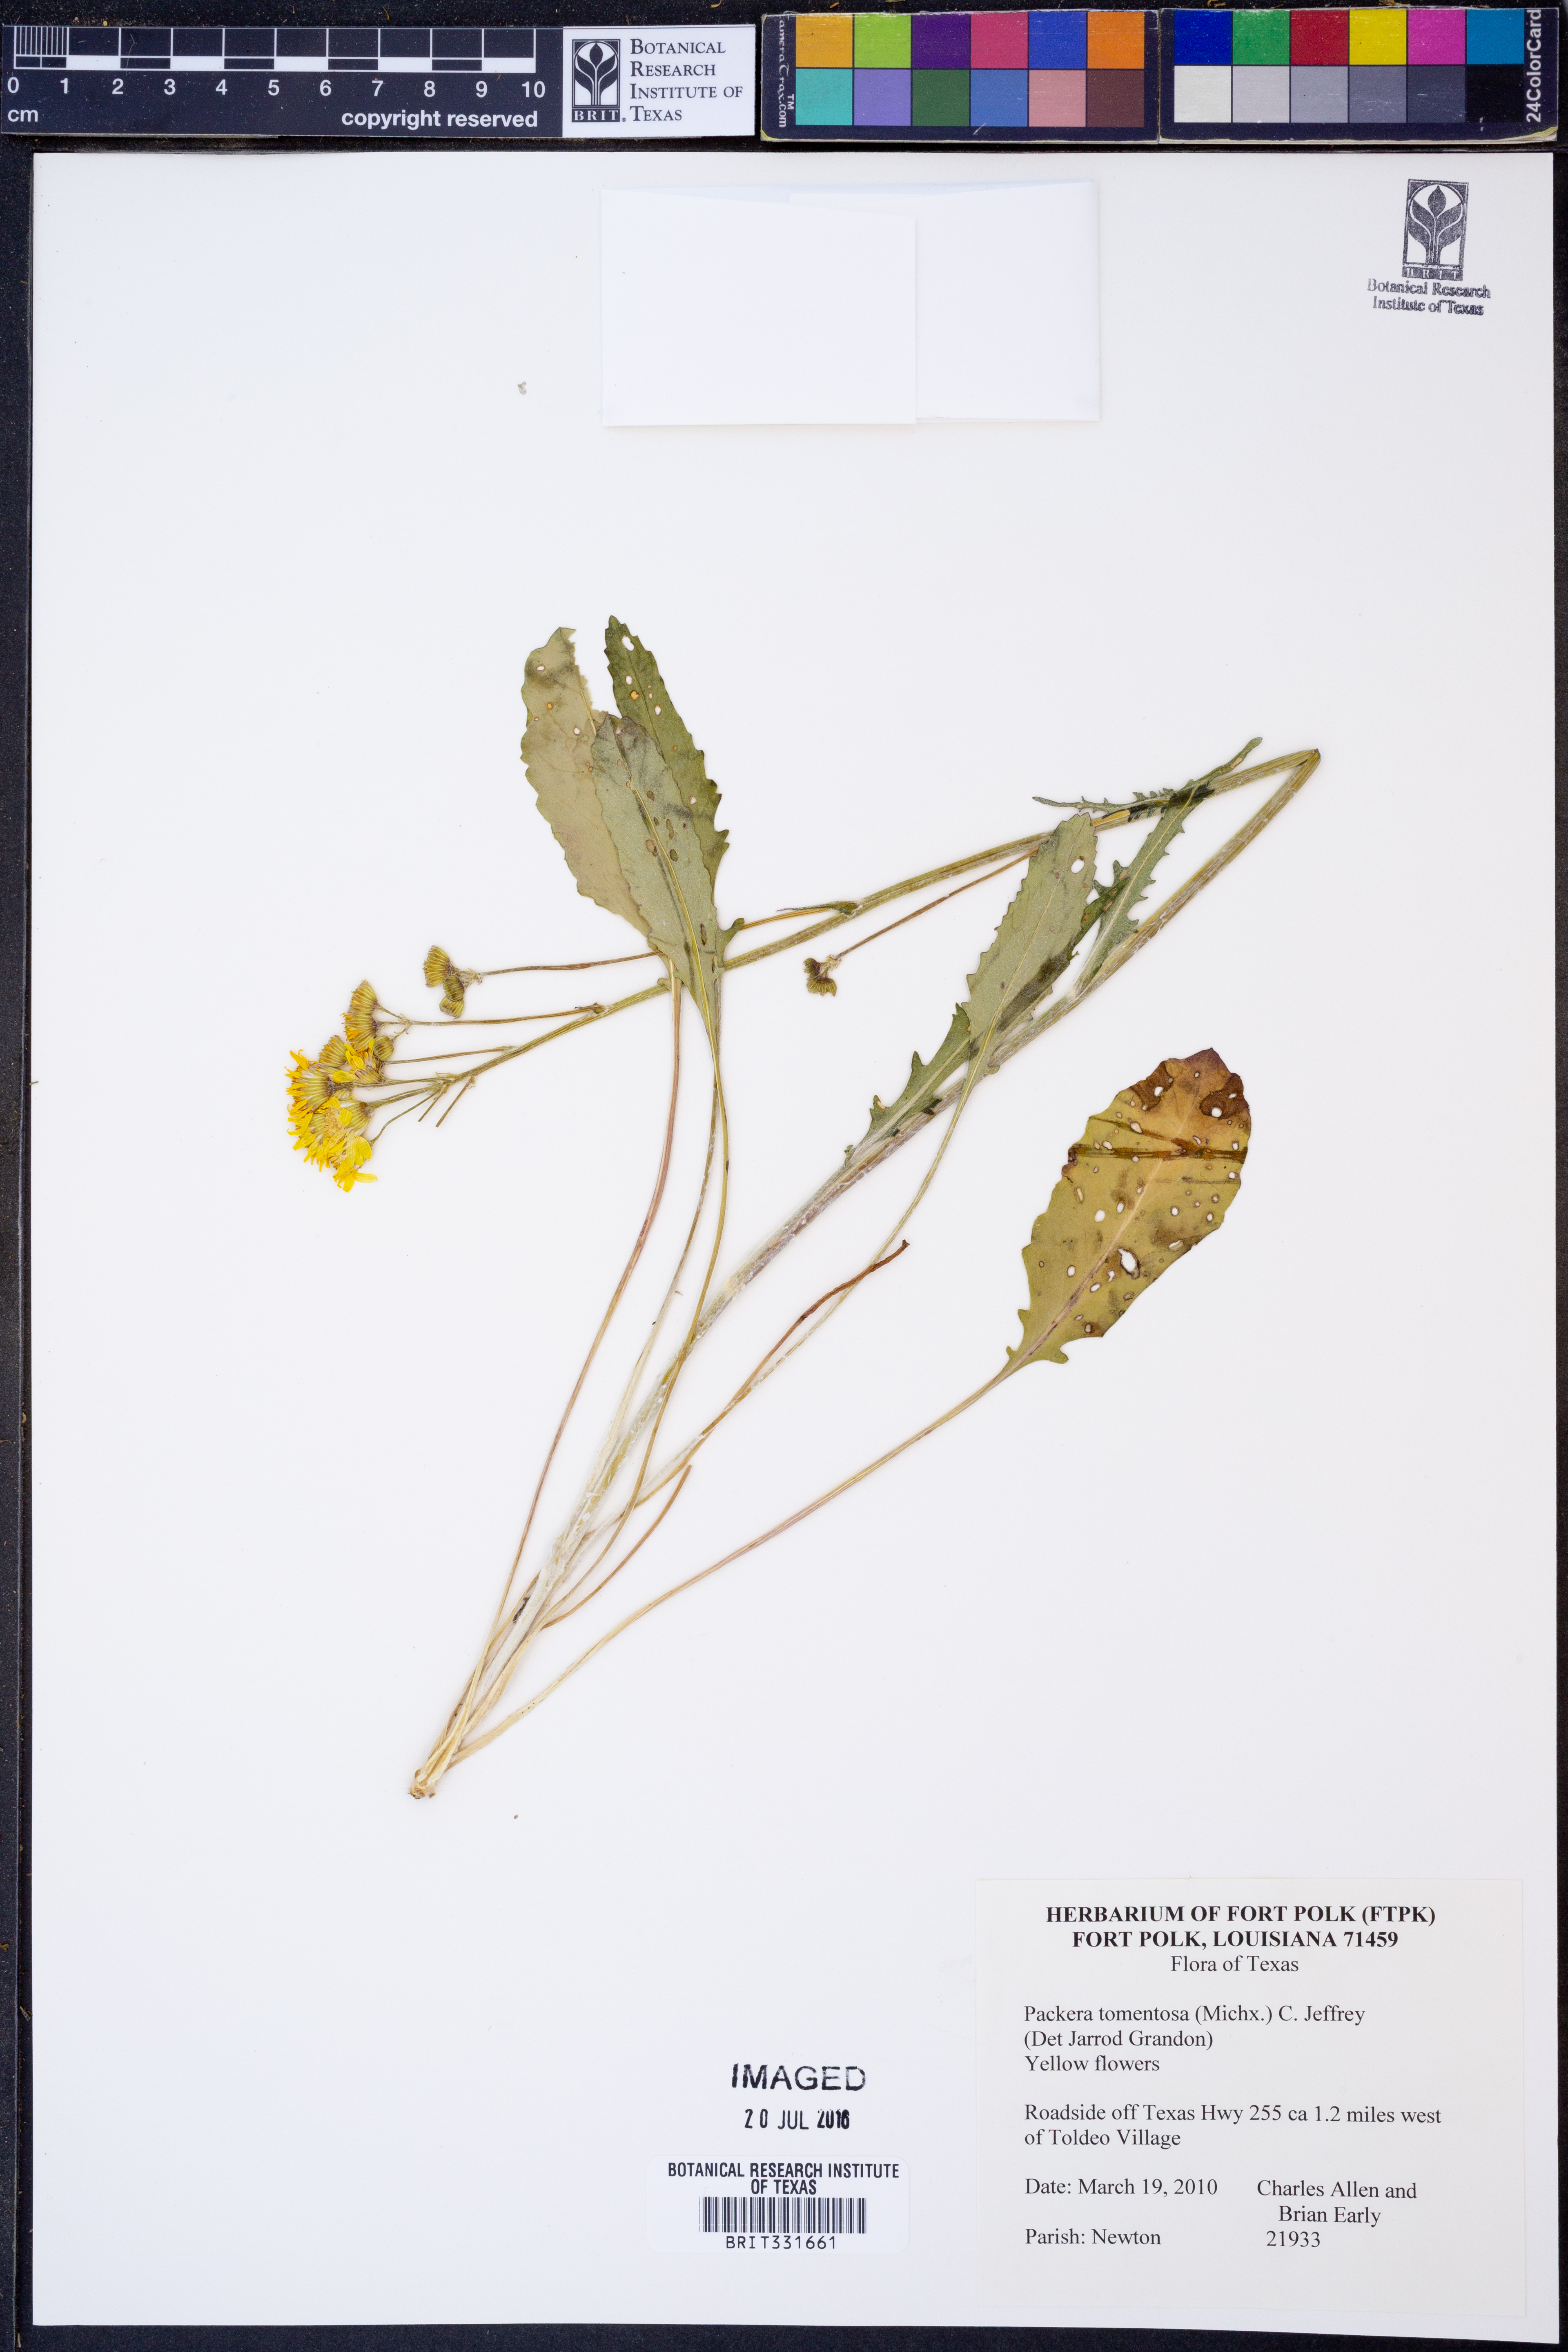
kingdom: Plantae
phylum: Tracheophyta
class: Magnoliopsida
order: Asterales
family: Asteraceae
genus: Packera
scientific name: Packera dubia
